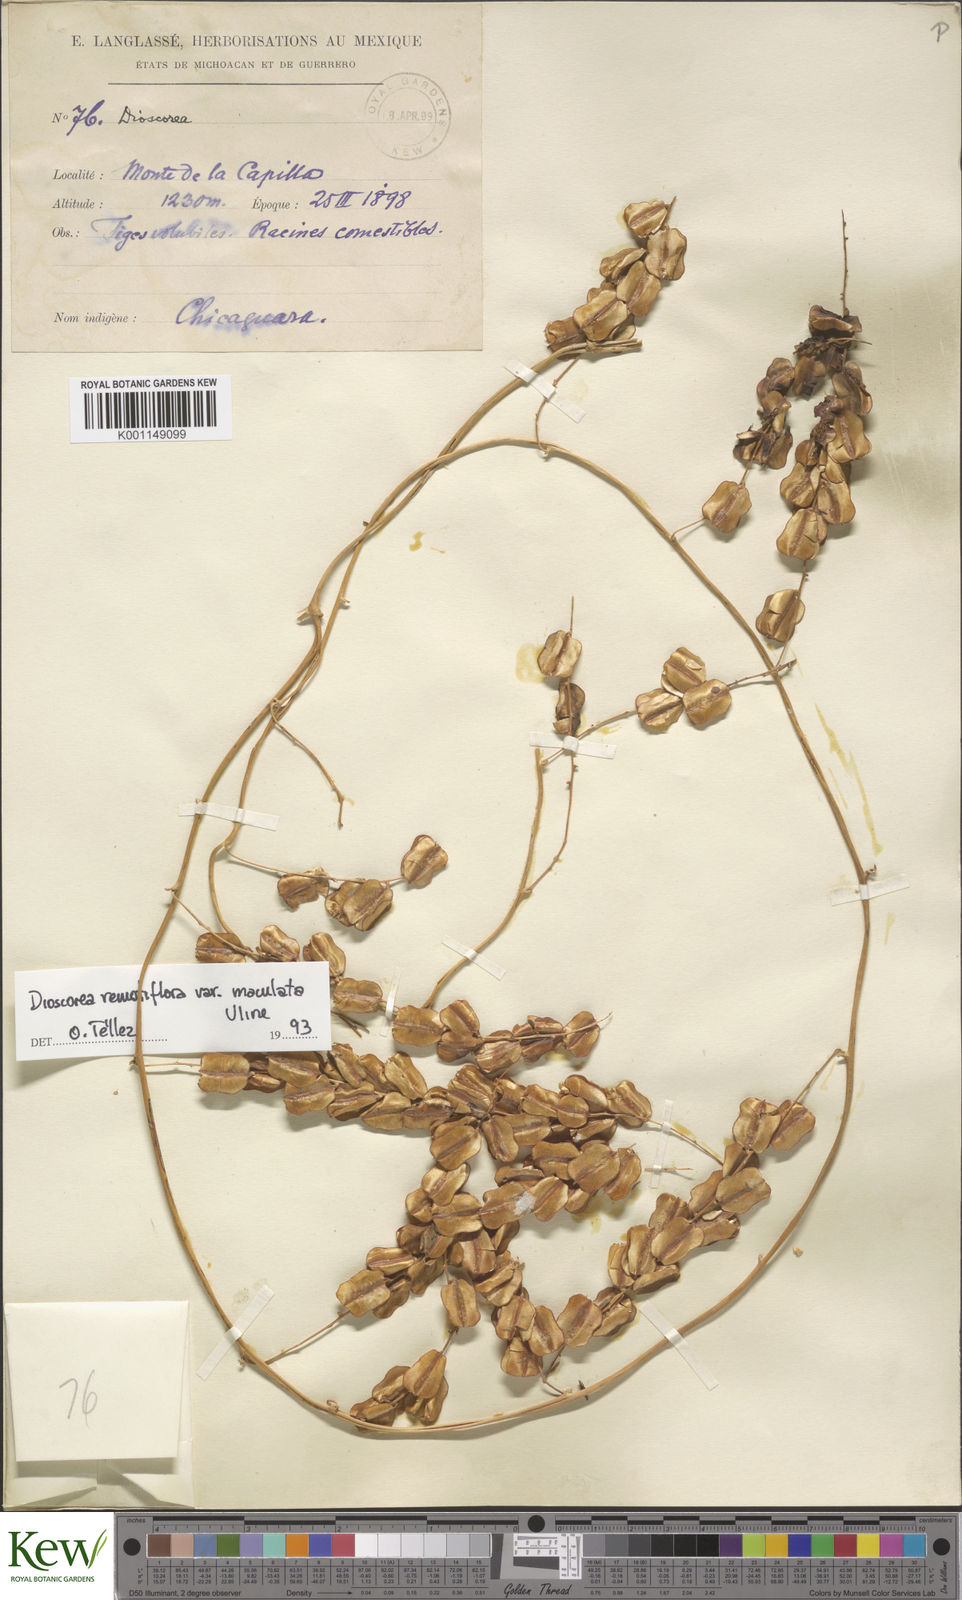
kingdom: Plantae
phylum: Tracheophyta
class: Liliopsida
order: Dioscoreales
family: Dioscoreaceae
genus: Dioscorea
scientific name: Dioscorea
